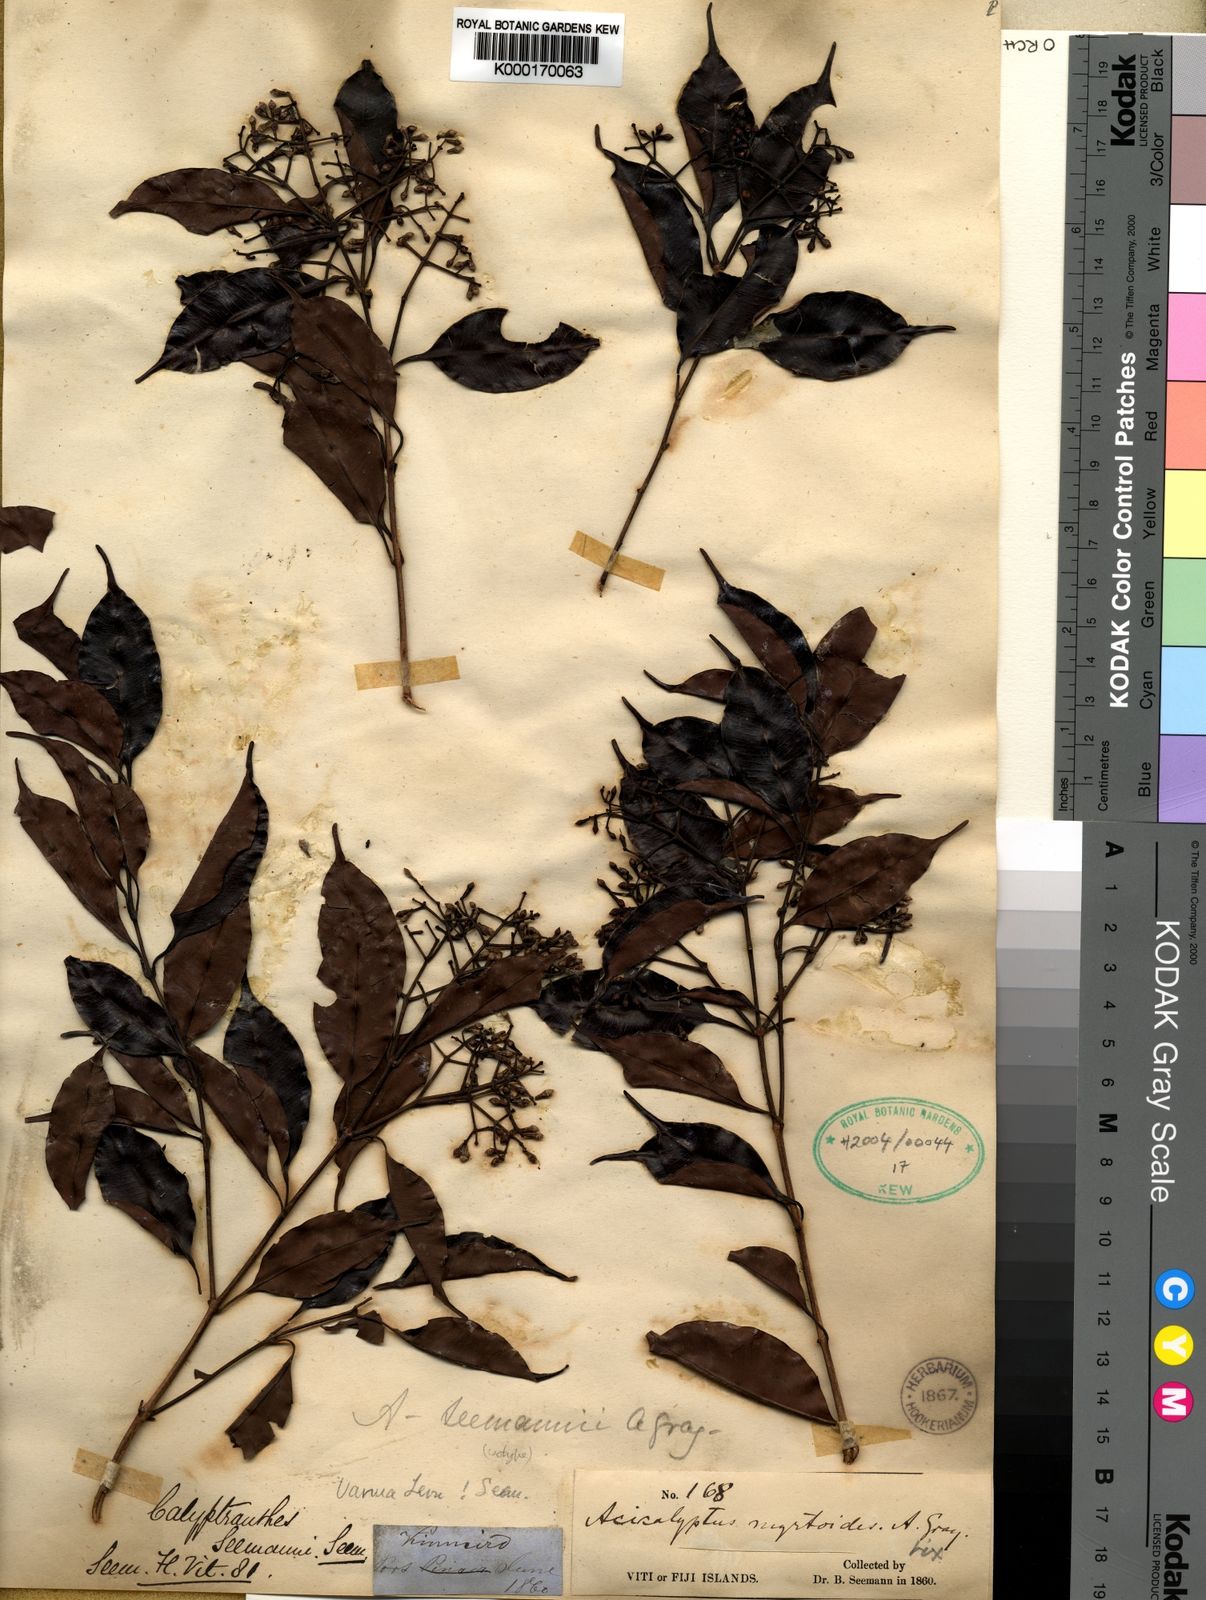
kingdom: Plantae
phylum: Tracheophyta
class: Magnoliopsida
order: Myrtales
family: Myrtaceae
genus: Syzygium
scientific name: Syzygium seemannii
